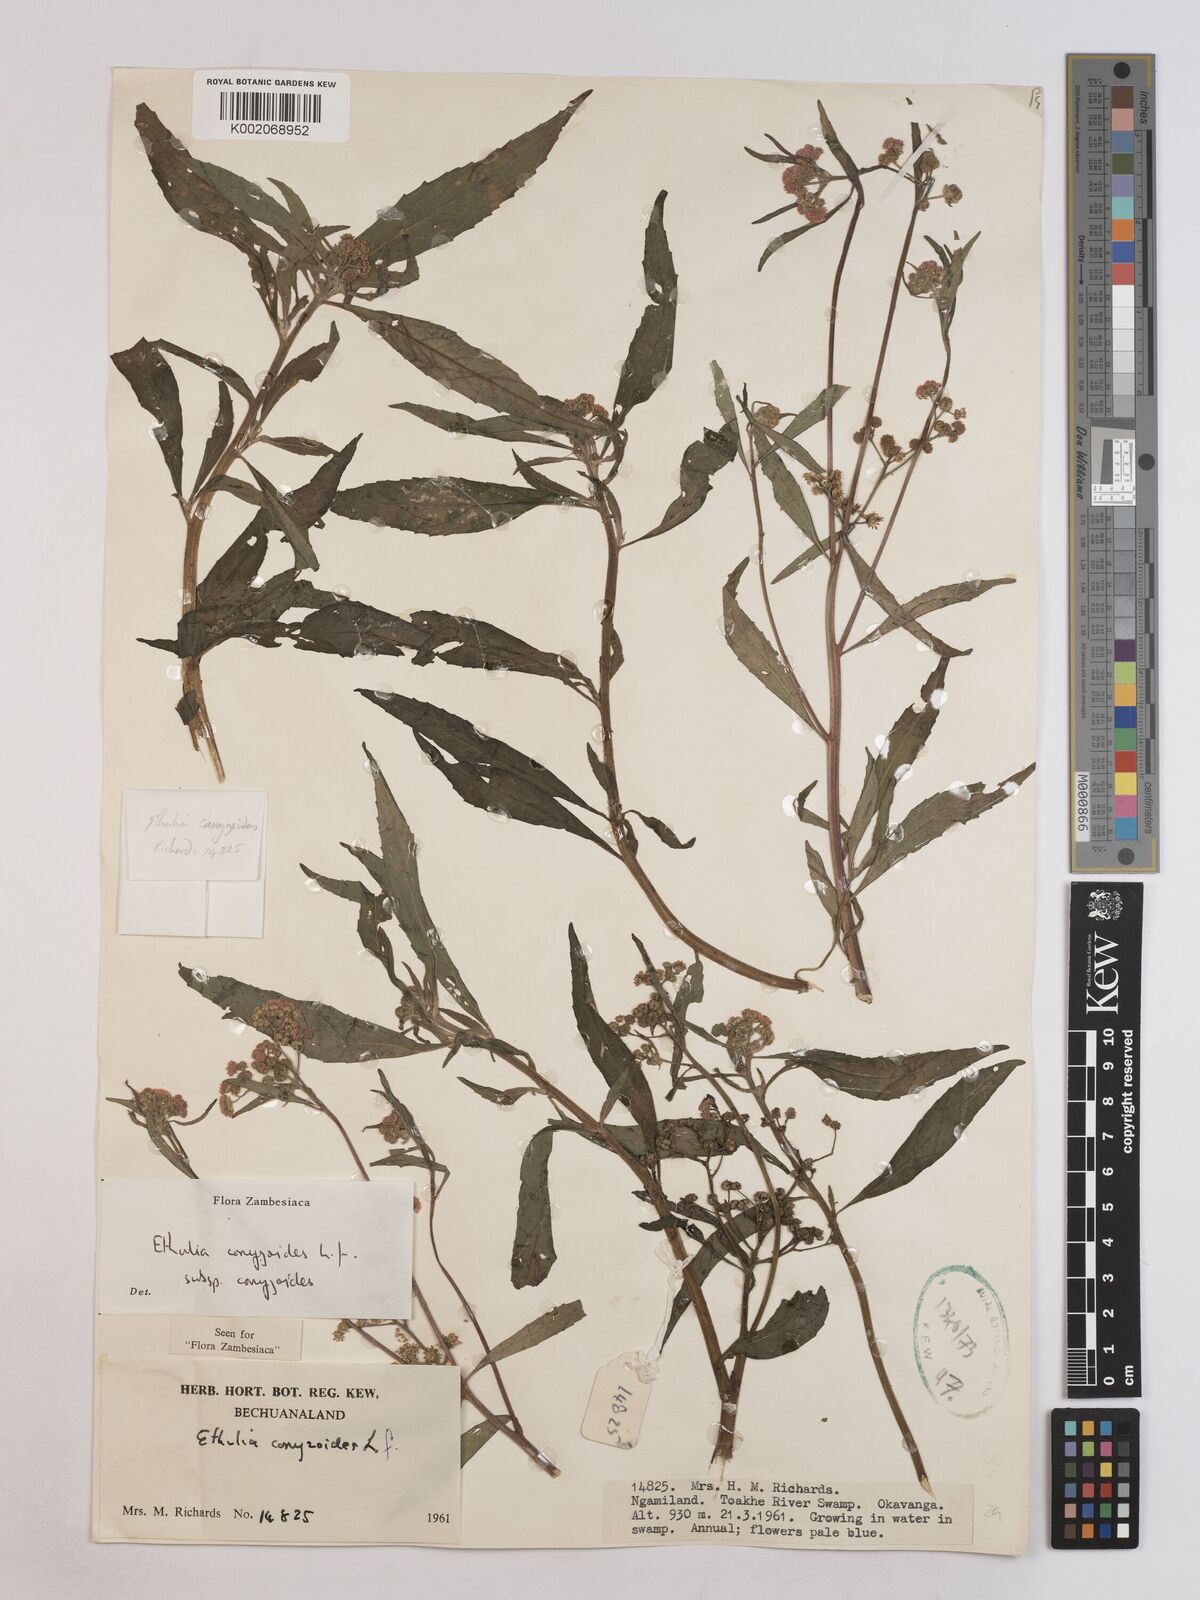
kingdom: Plantae
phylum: Tracheophyta
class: Magnoliopsida
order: Asterales
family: Asteraceae
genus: Ethulia
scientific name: Ethulia conyzoides
